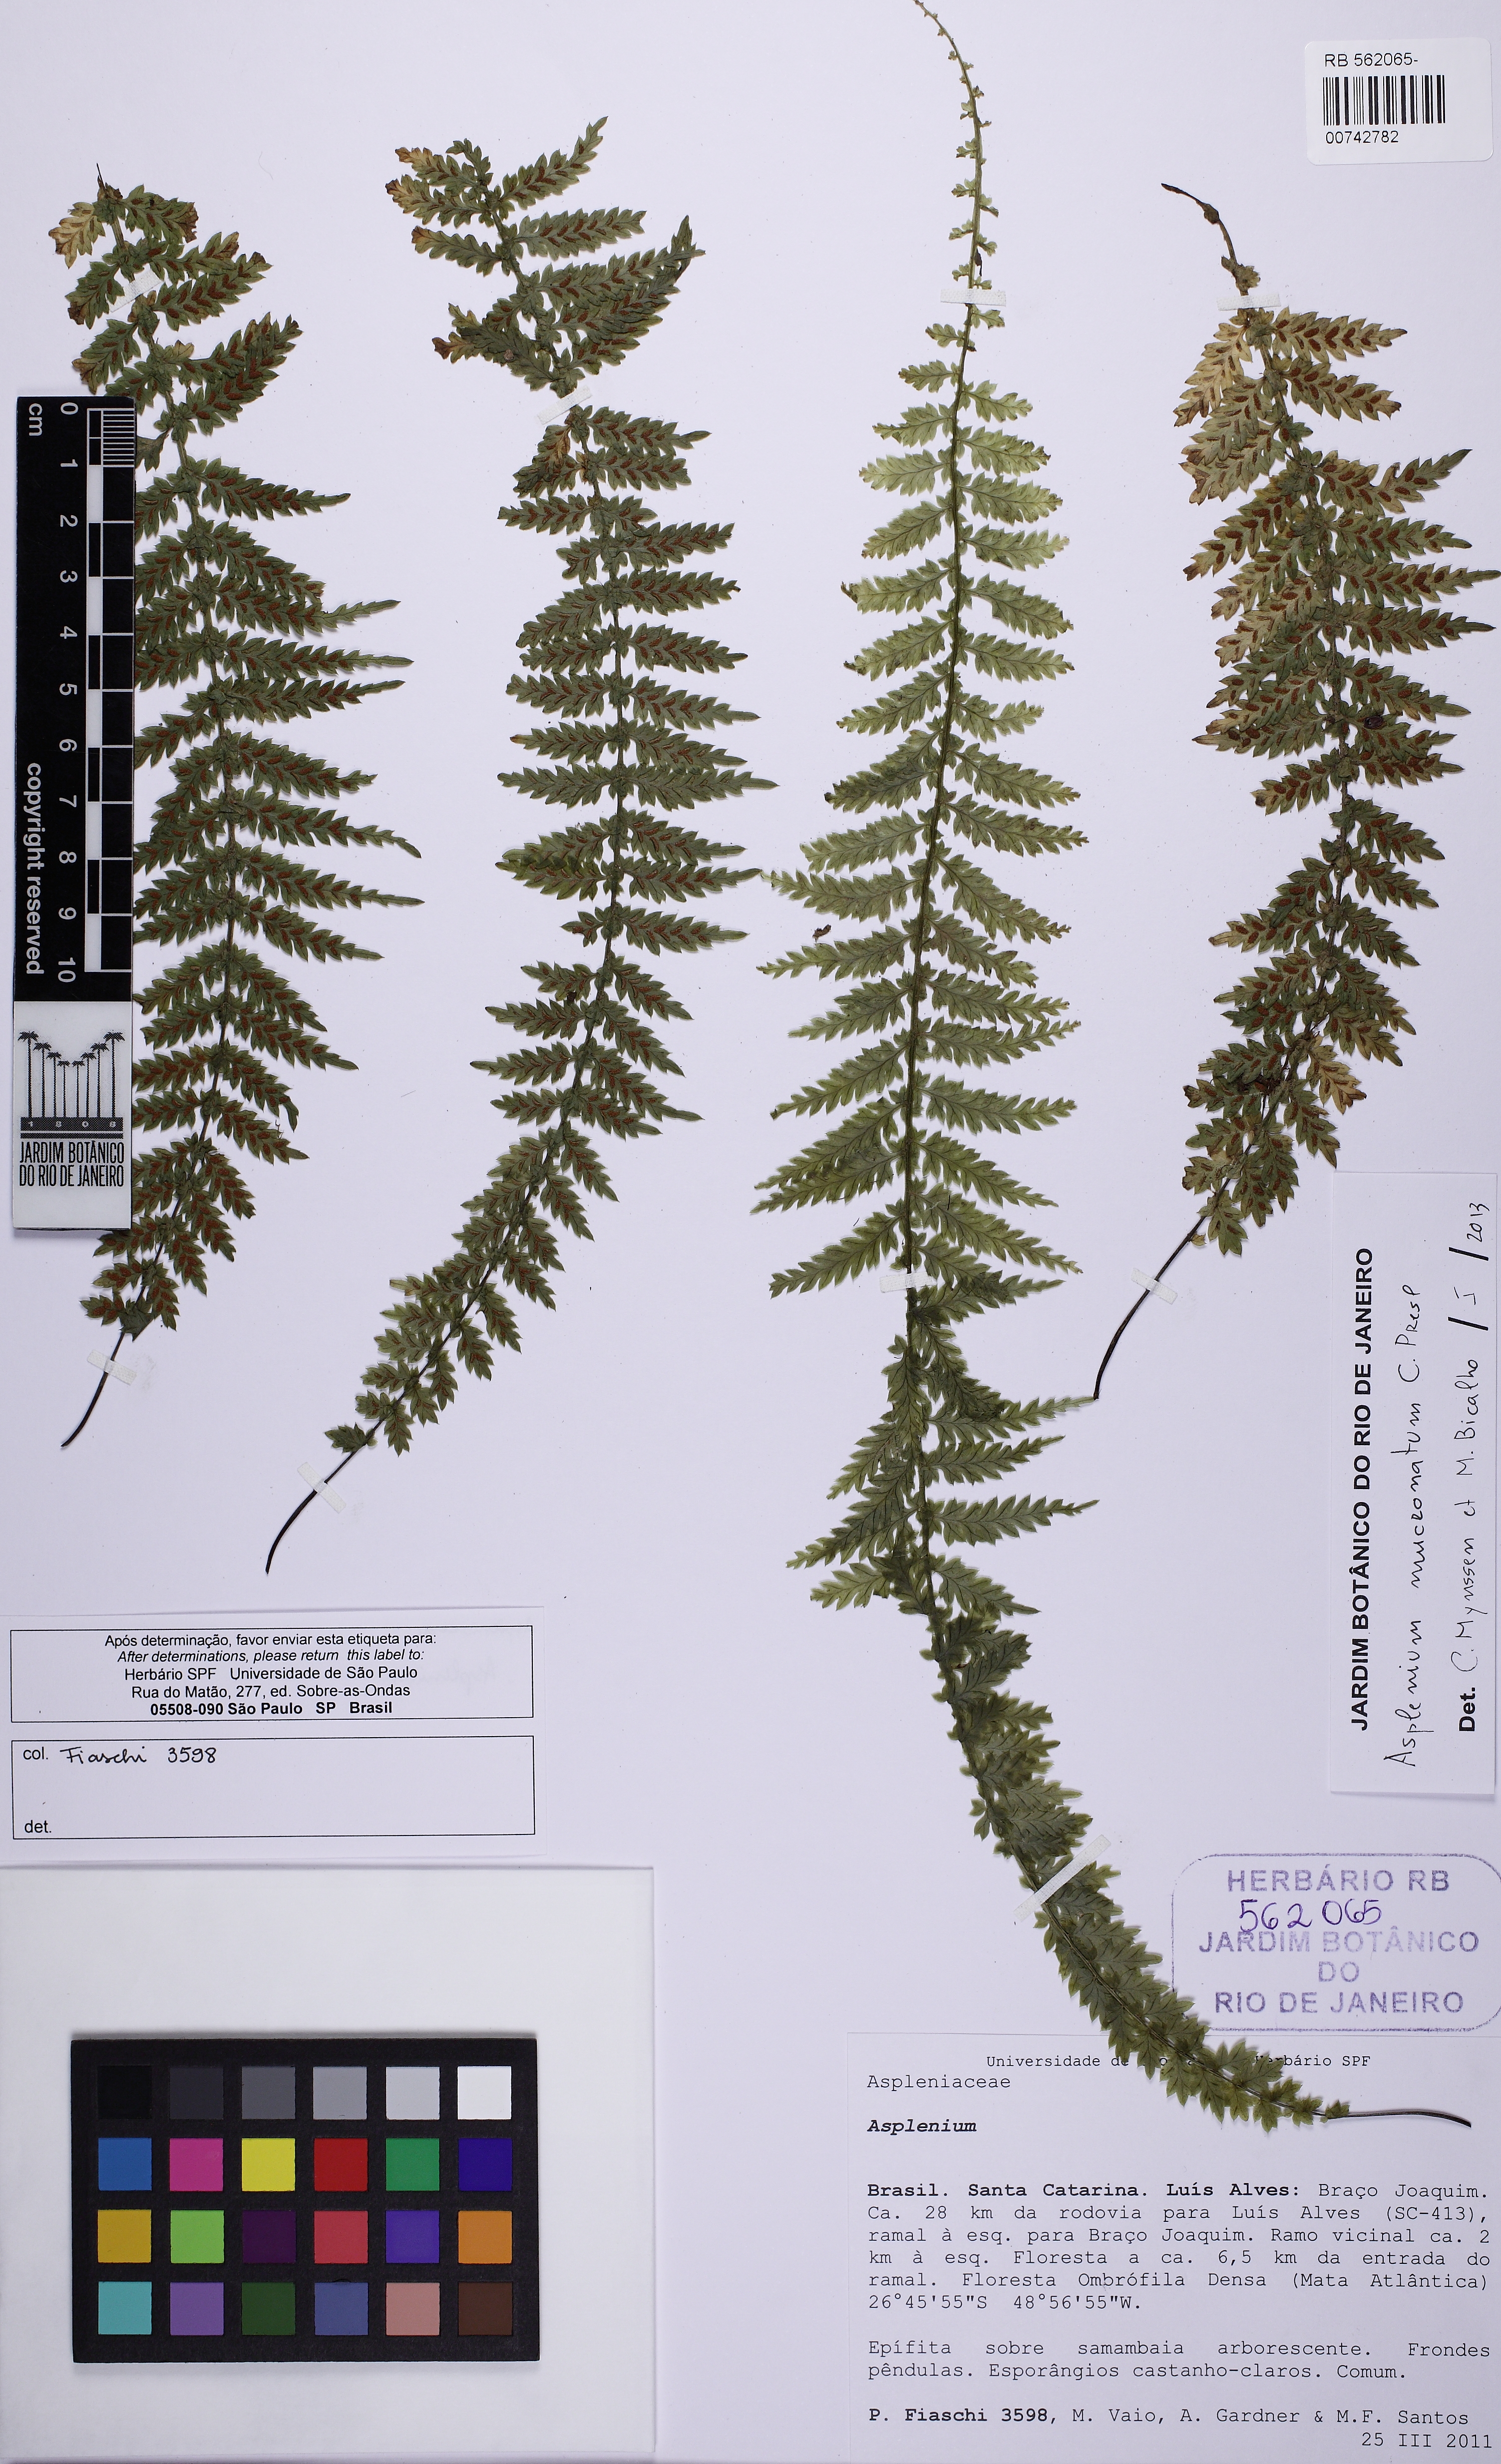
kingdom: Plantae
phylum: Tracheophyta
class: Polypodiopsida
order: Polypodiales
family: Aspleniaceae
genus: Asplenium
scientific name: Asplenium mucronatum
